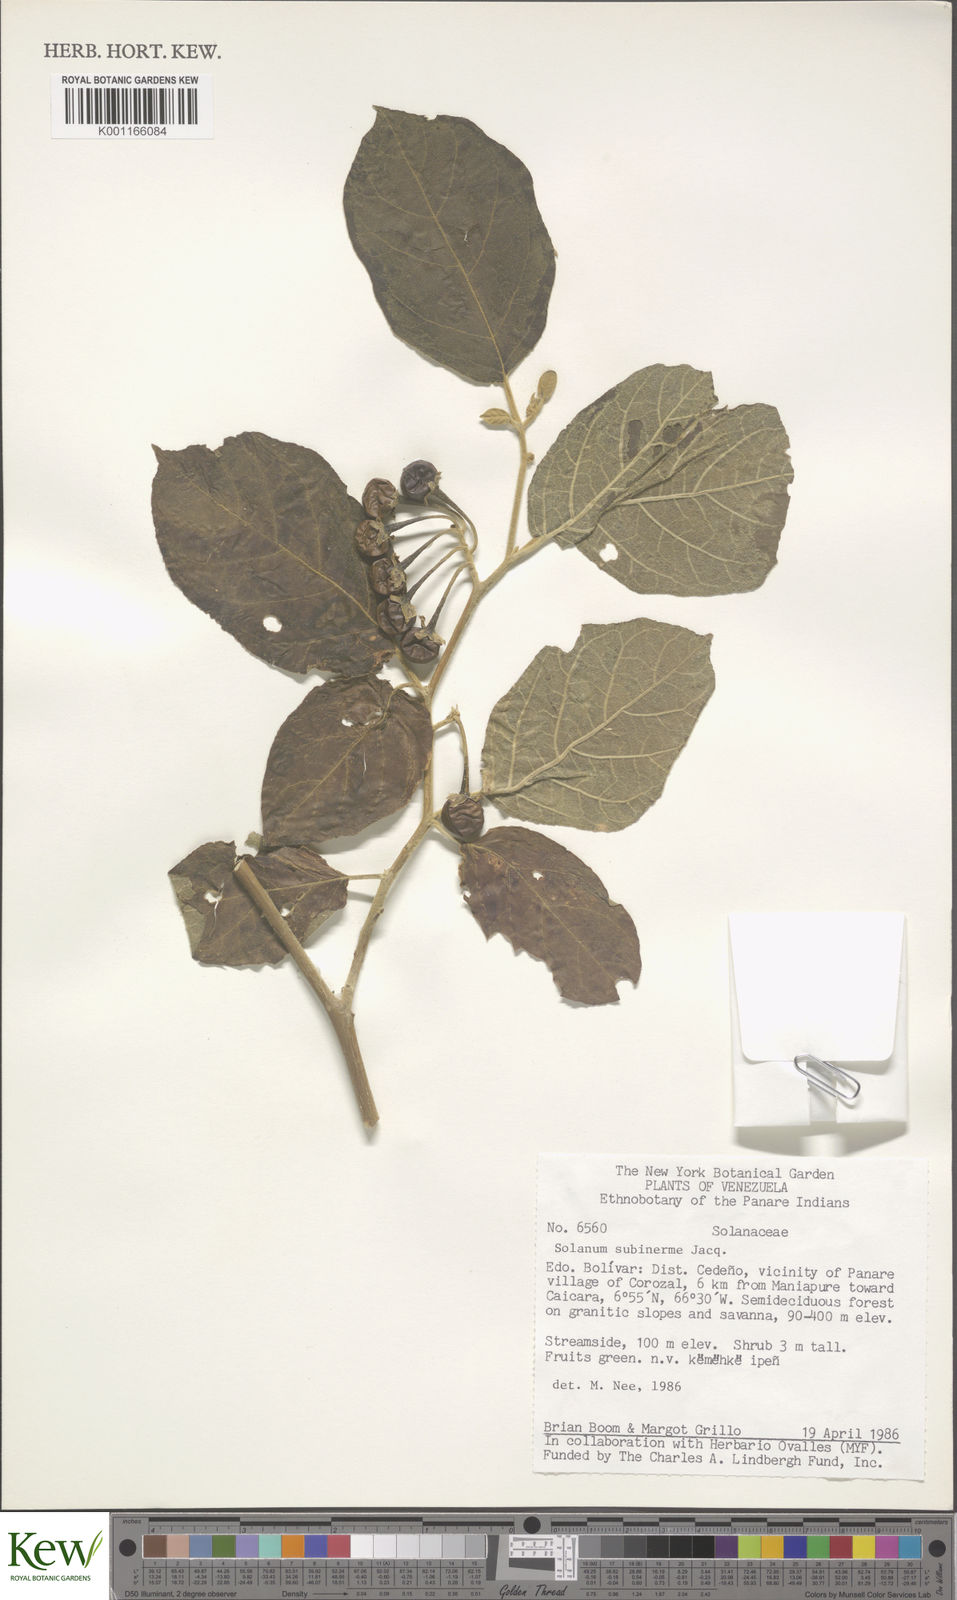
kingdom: Plantae
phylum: Tracheophyta
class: Magnoliopsida
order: Solanales
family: Solanaceae
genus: Solanum
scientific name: Solanum subinerme
